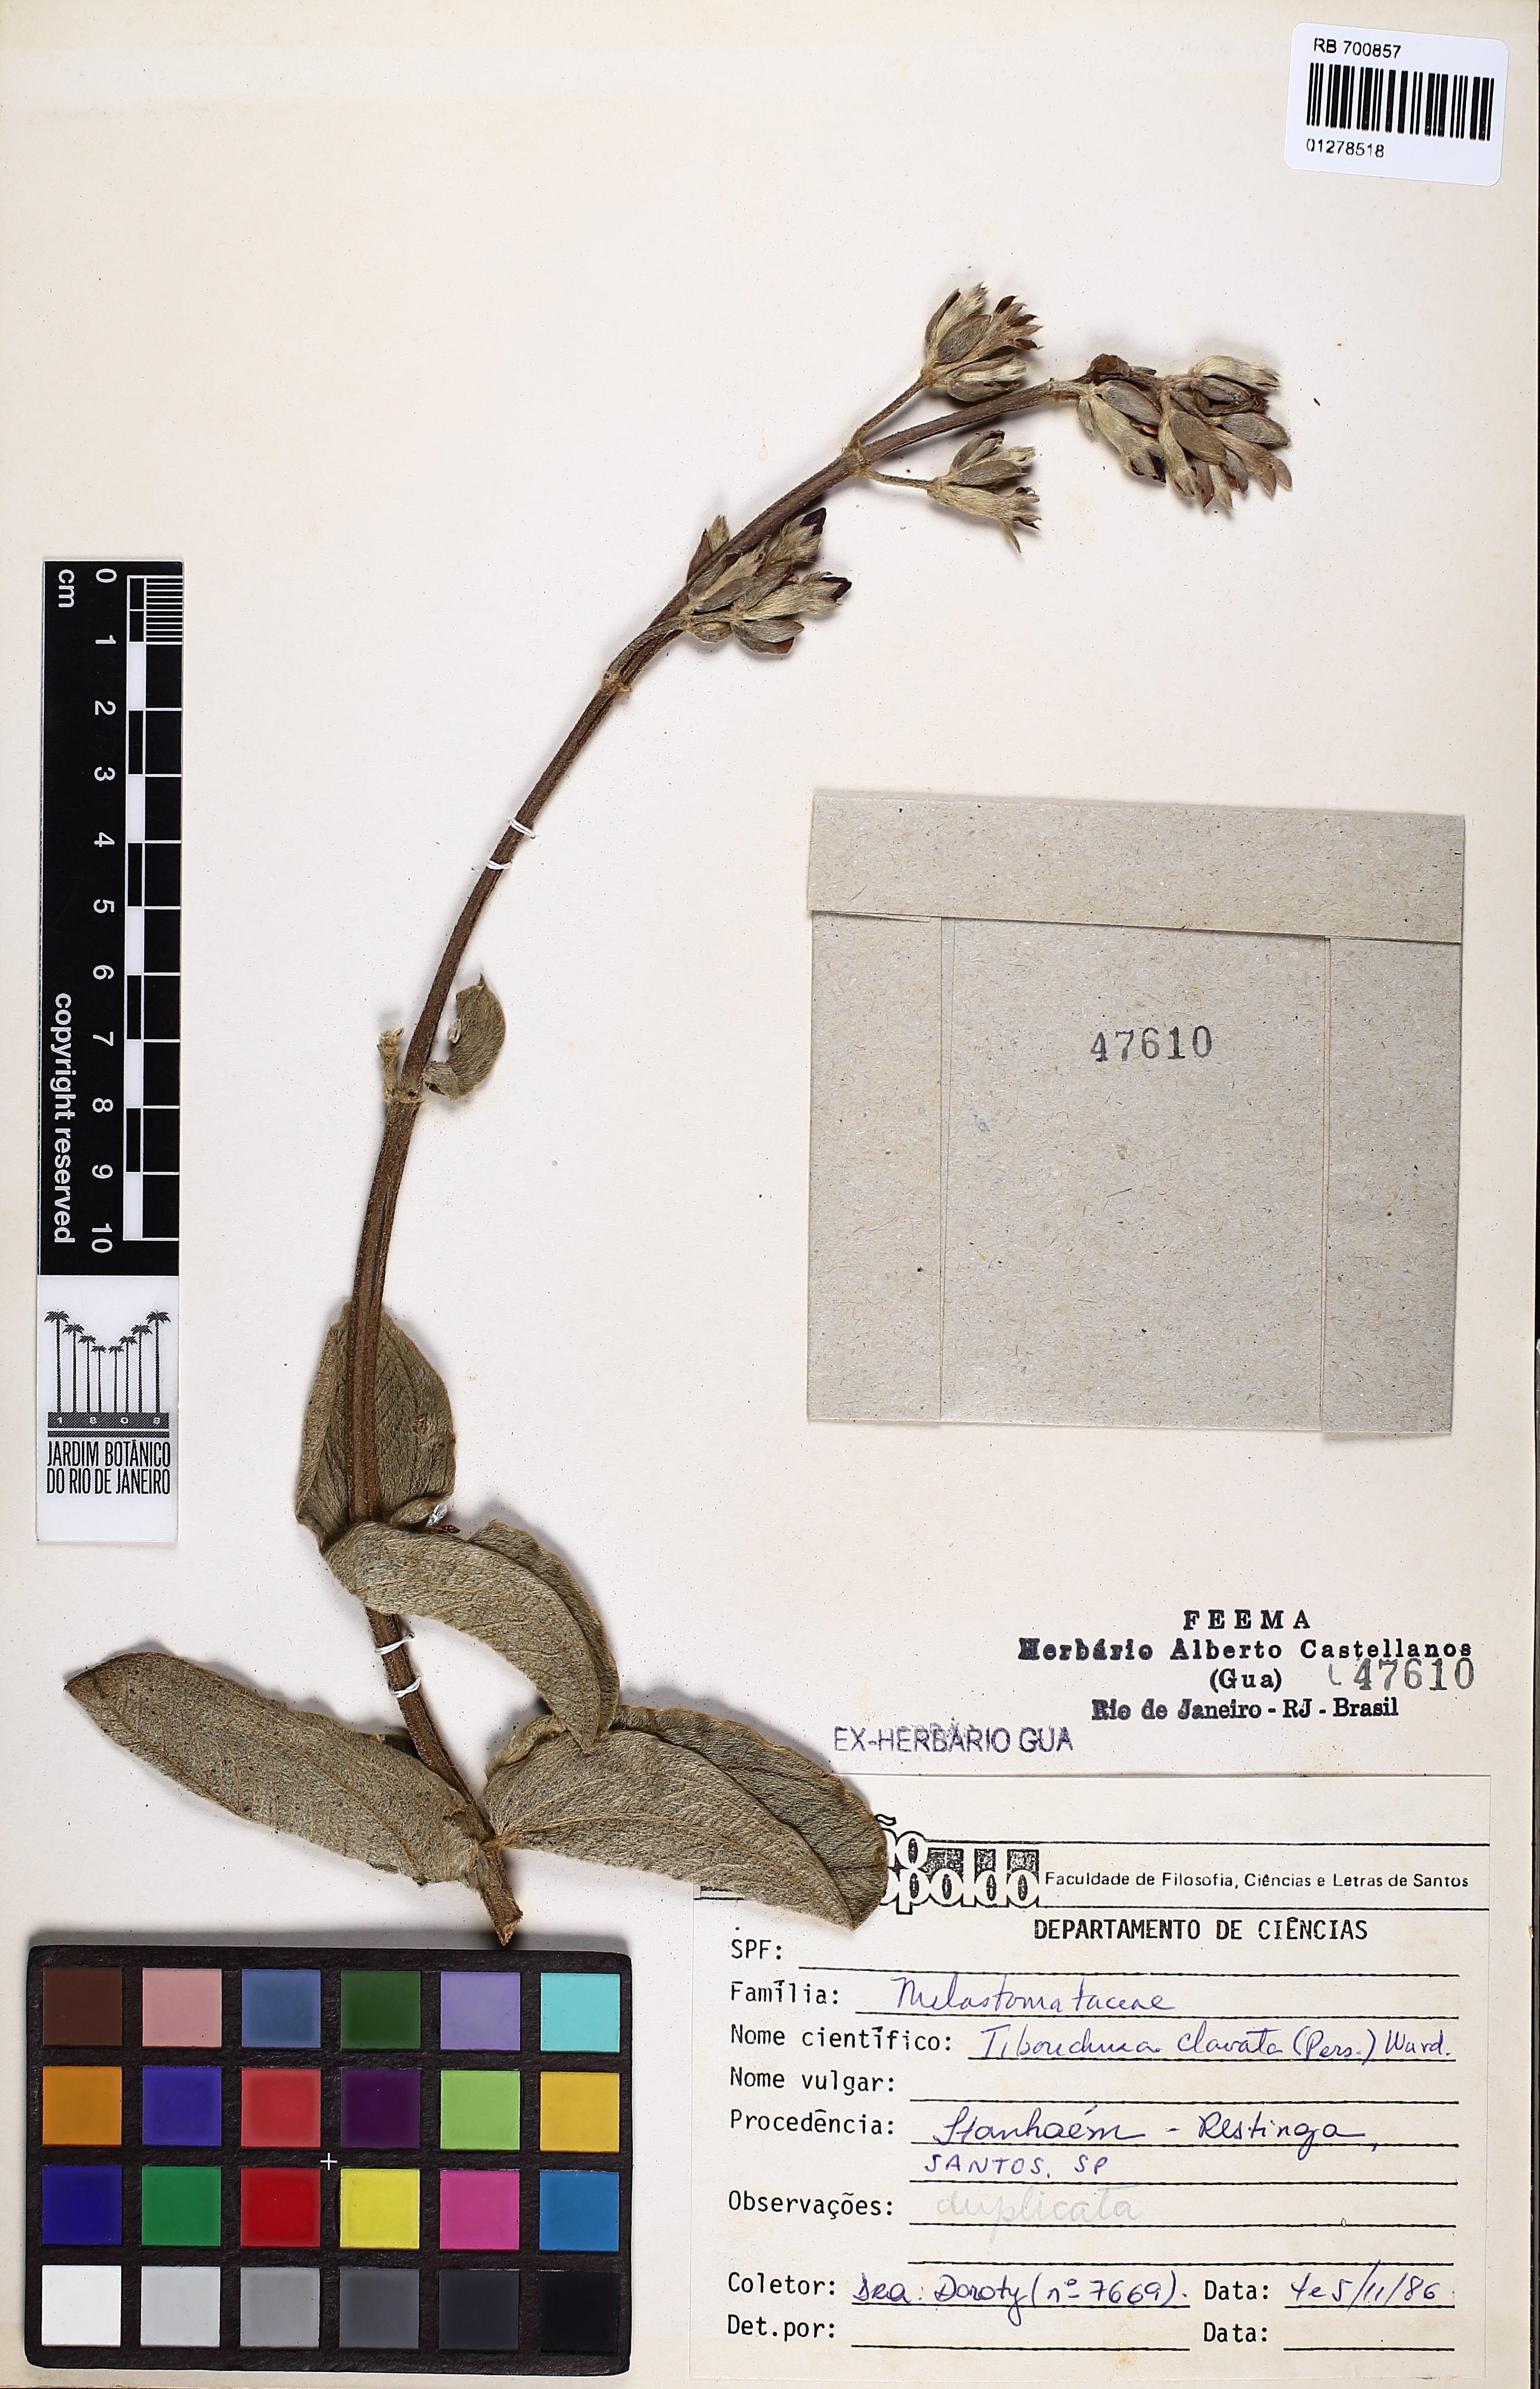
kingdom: Plantae
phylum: Tracheophyta
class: Magnoliopsida
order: Myrtales
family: Melastomataceae
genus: Pleroma
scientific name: Pleroma clavatum
